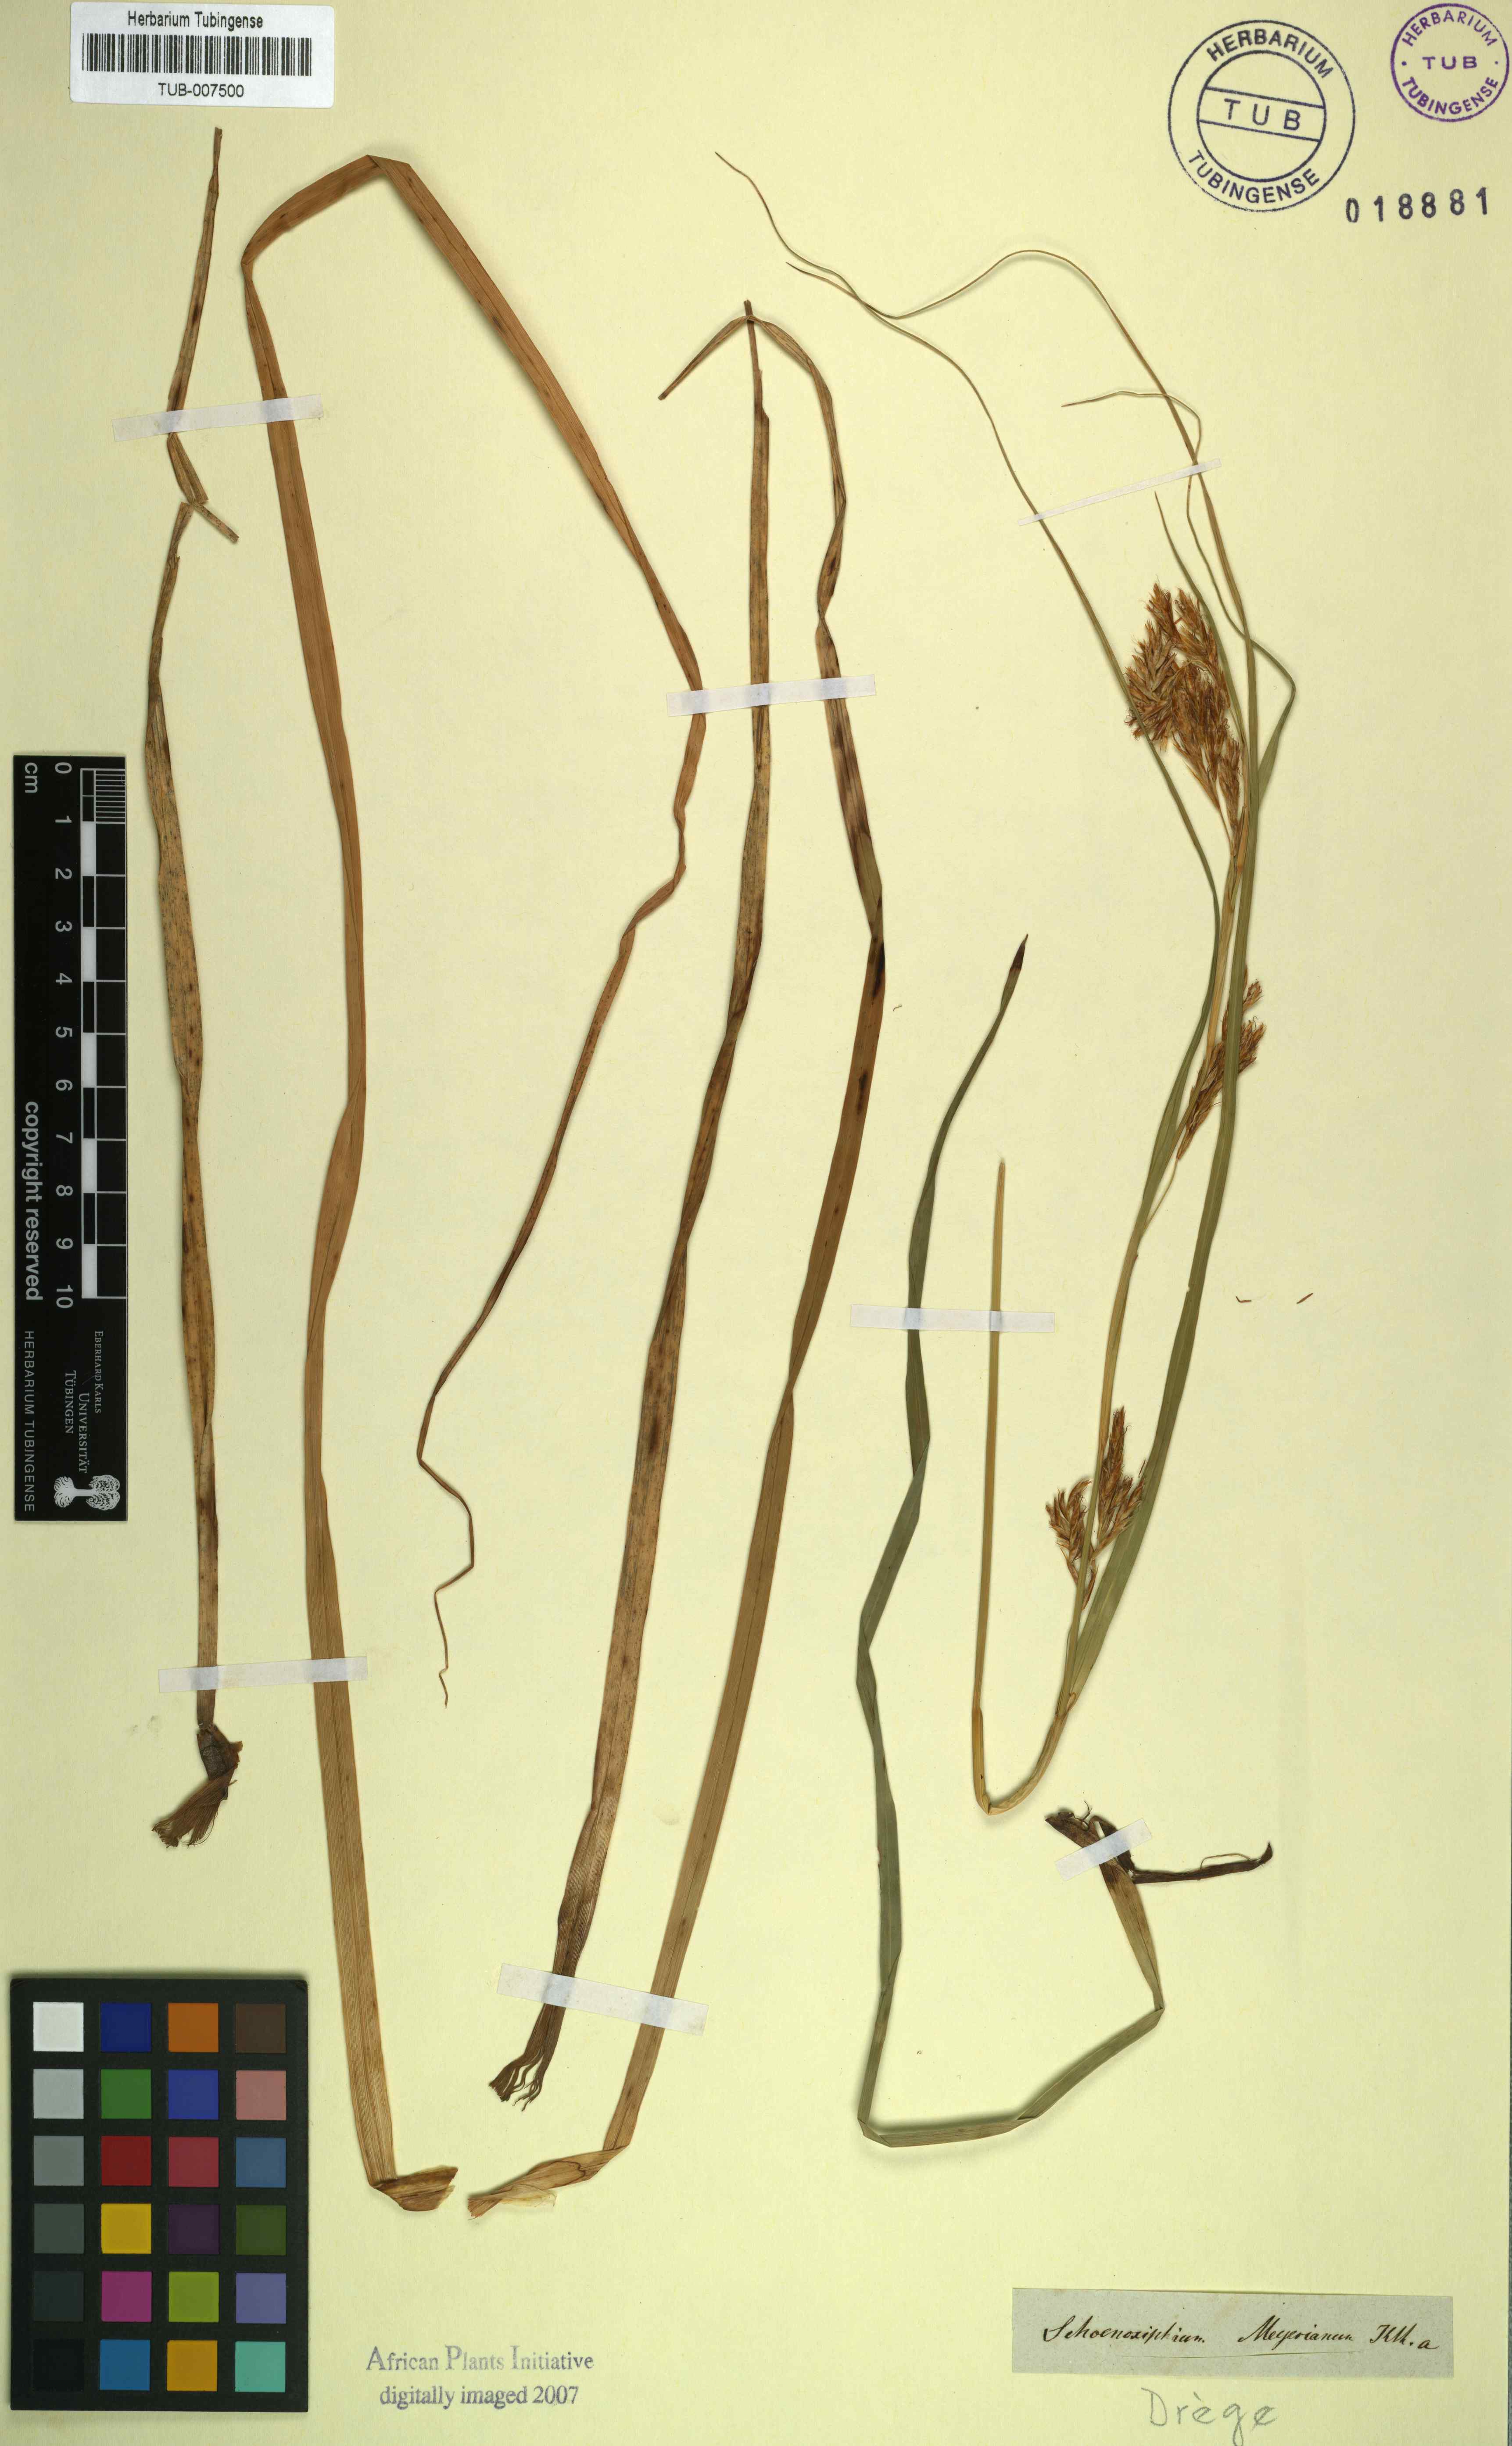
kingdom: Plantae
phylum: Tracheophyta
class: Liliopsida
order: Poales
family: Cyperaceae
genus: Carex
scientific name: Carex lancea
